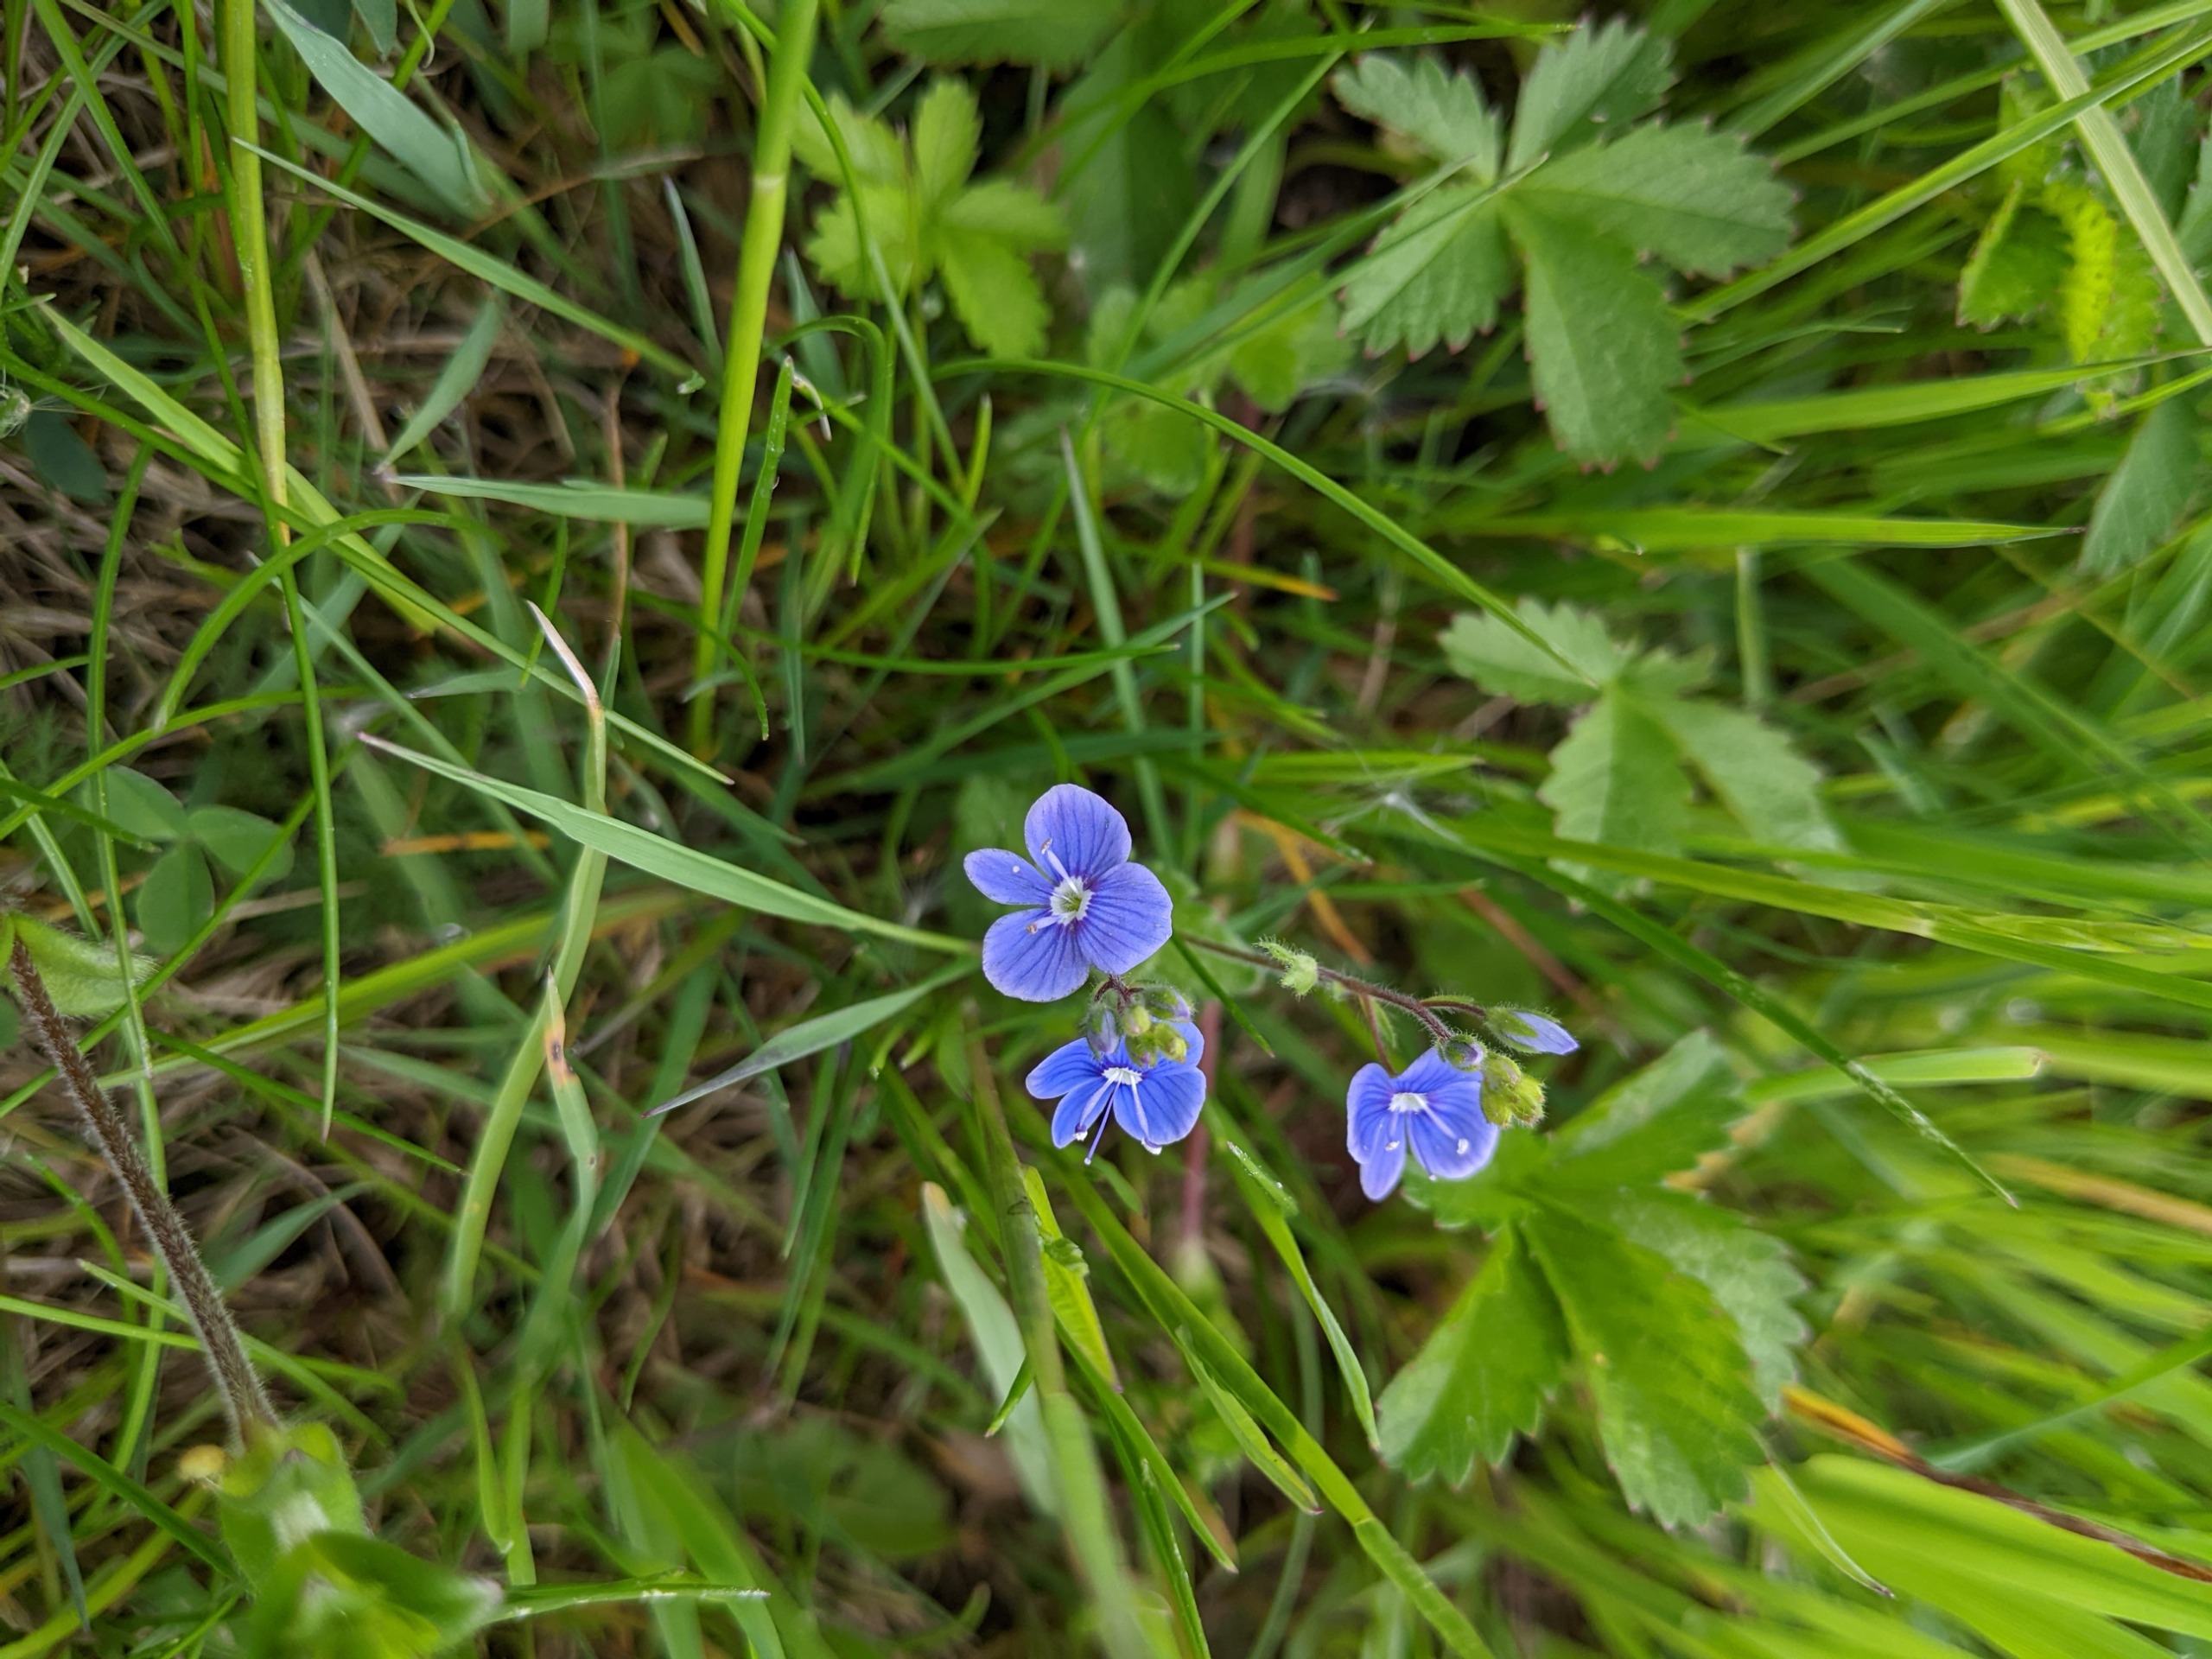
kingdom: Plantae
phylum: Tracheophyta
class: Magnoliopsida
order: Lamiales
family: Plantaginaceae
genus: Veronica
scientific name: Veronica chamaedrys
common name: Tveskægget ærenpris
